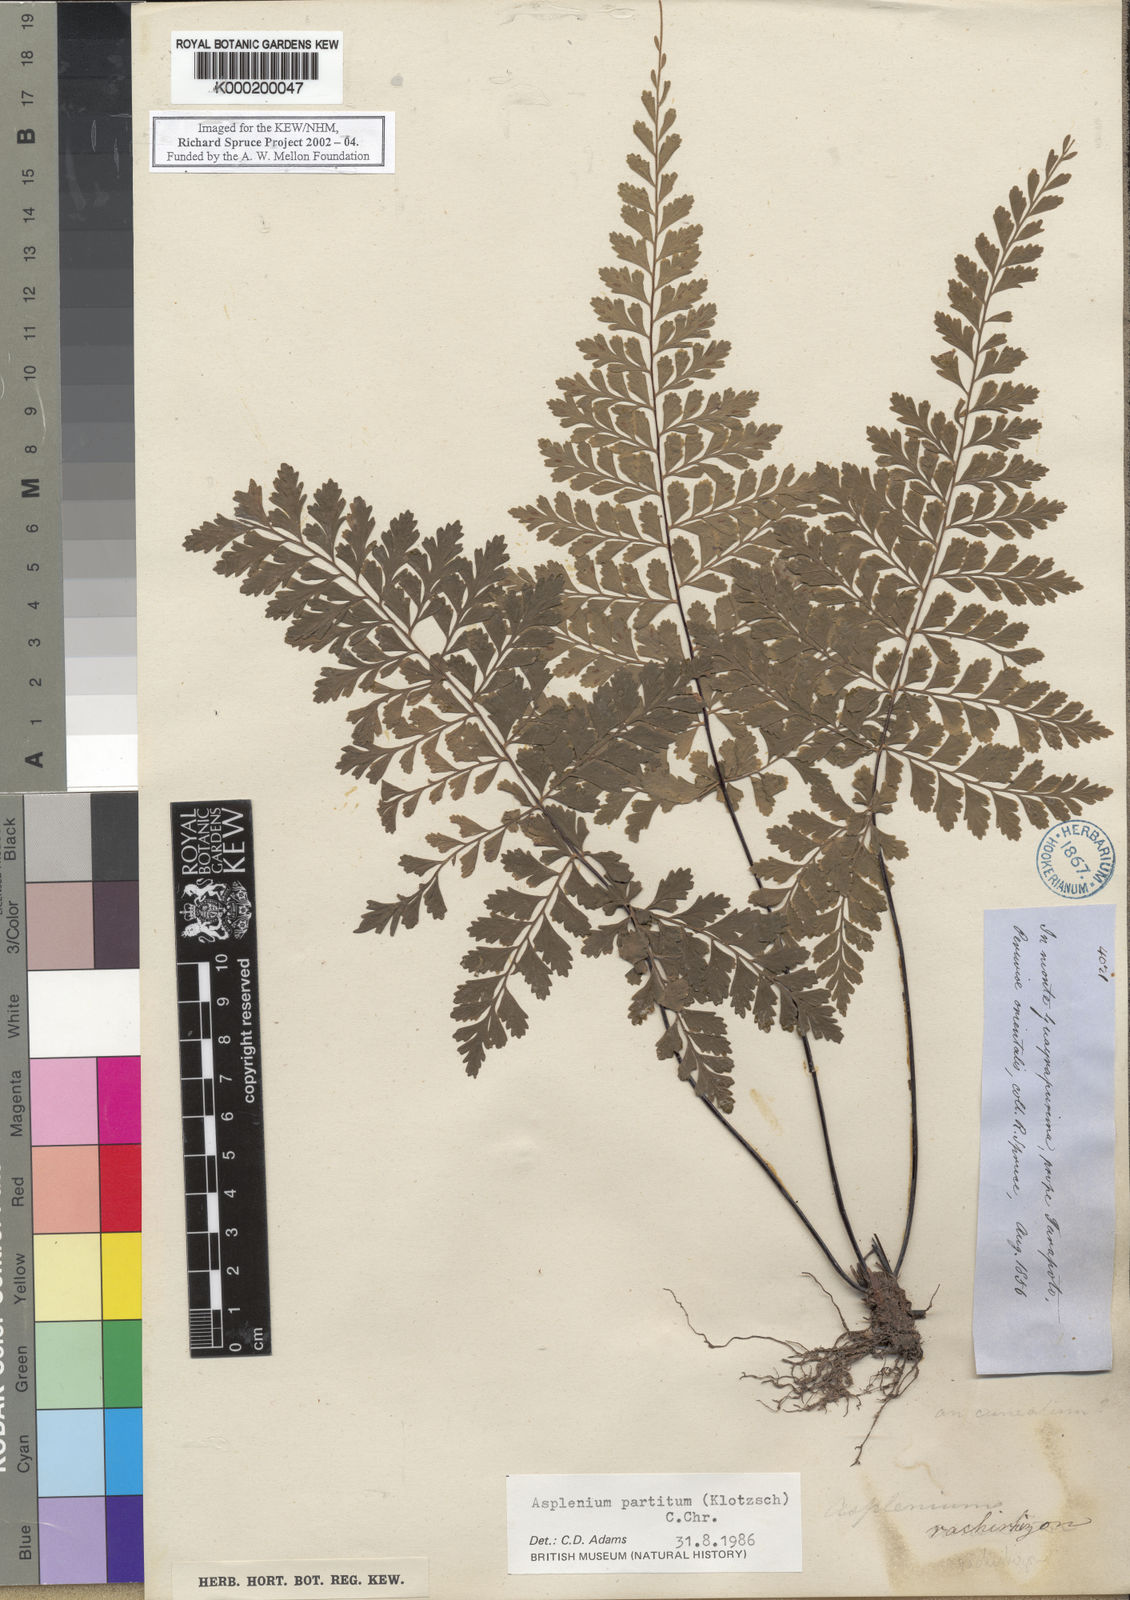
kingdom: Plantae
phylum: Tracheophyta
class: Polypodiopsida
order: Polypodiales
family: Aspleniaceae
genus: Asplenium
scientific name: Asplenium
